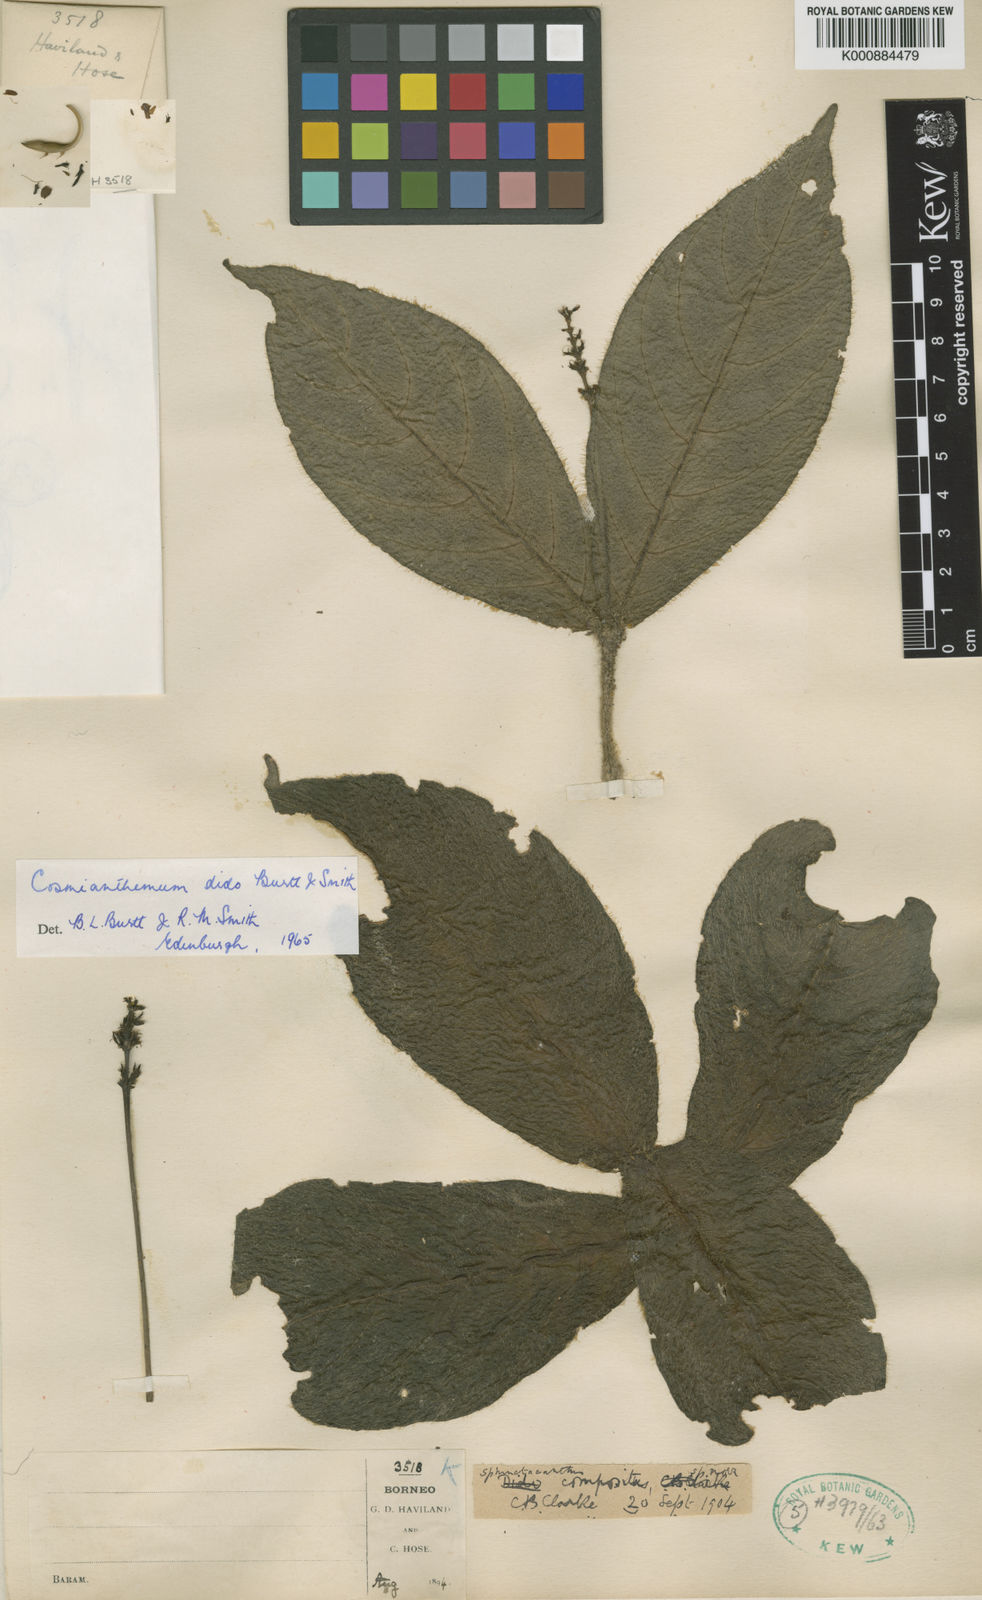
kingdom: Plantae
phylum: Tracheophyta
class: Magnoliopsida
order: Lamiales
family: Acanthaceae
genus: Cosmianthemum
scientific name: Cosmianthemum dido
